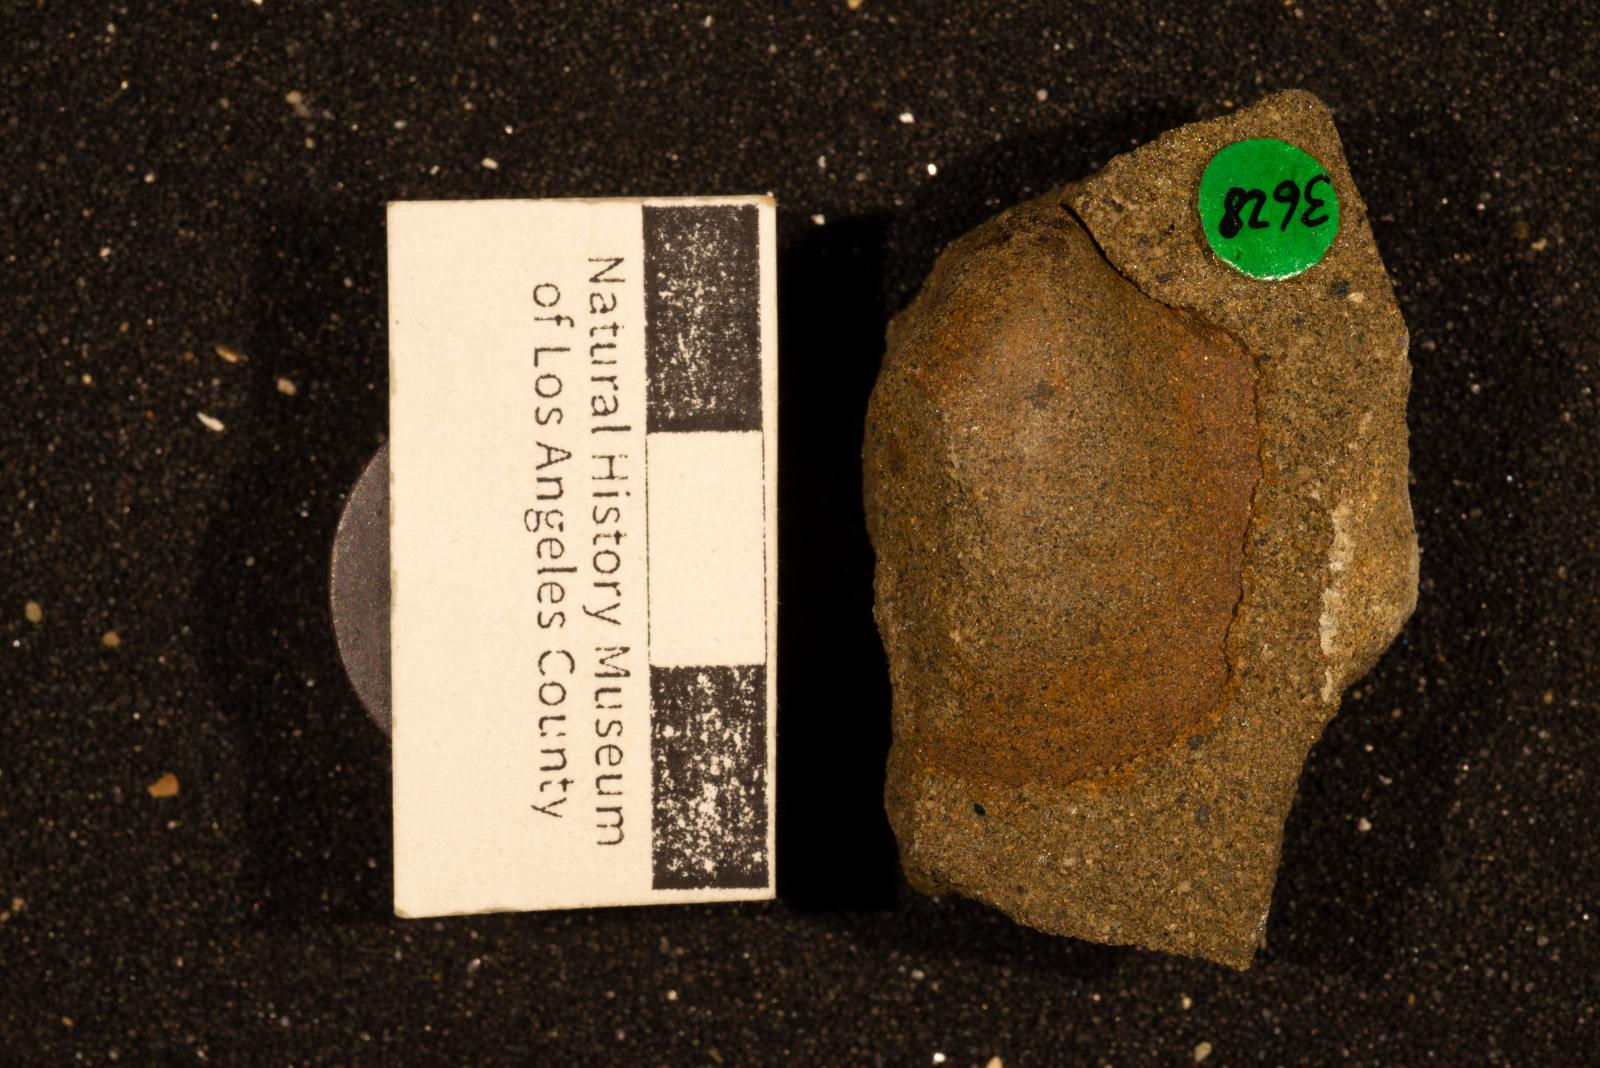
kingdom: Animalia
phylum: Mollusca
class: Bivalvia
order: Ostreida
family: Pteriidae
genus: Pteria
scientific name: Pteria pellucida
